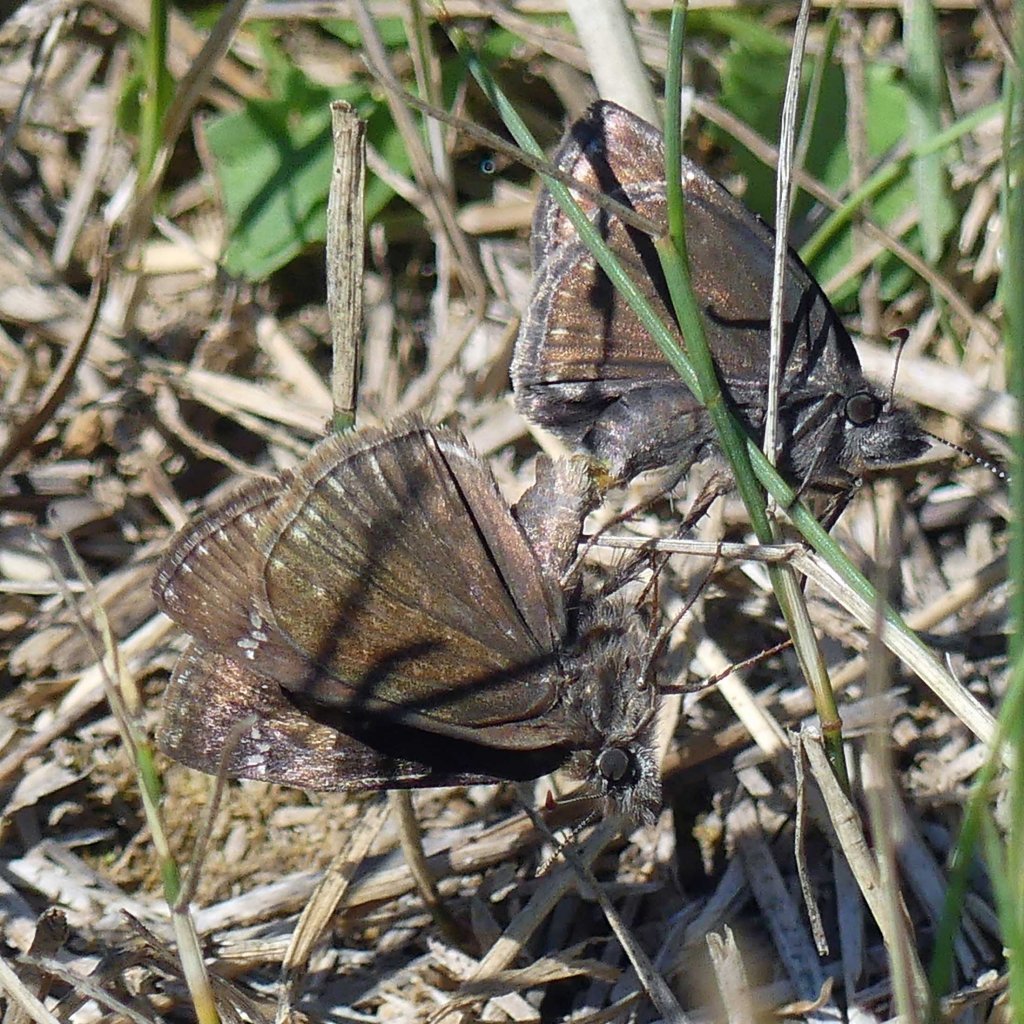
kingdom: Animalia
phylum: Arthropoda
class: Insecta
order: Lepidoptera
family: Hesperiidae
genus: Gesta
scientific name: Gesta
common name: Wild Indigo Duskywing
